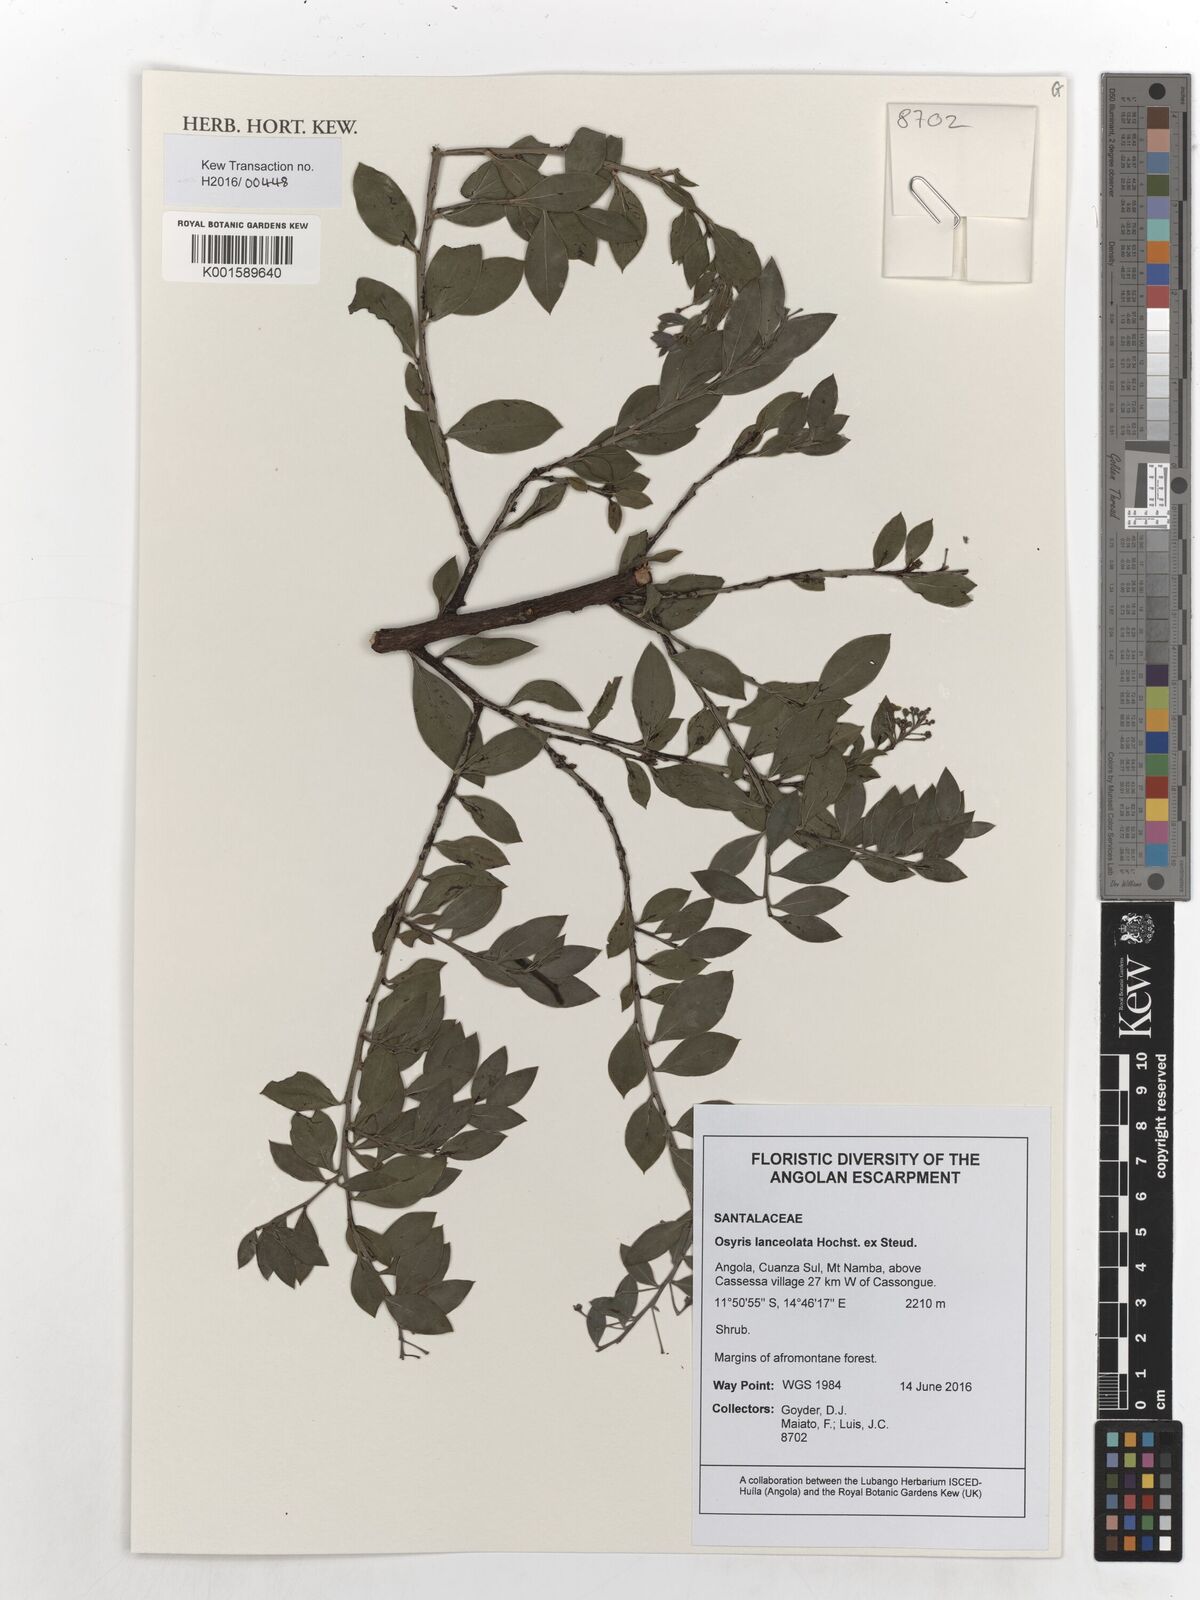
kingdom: Plantae
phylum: Tracheophyta
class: Magnoliopsida
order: Santalales
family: Santalaceae
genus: Osyris
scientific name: Osyris lanceolata
